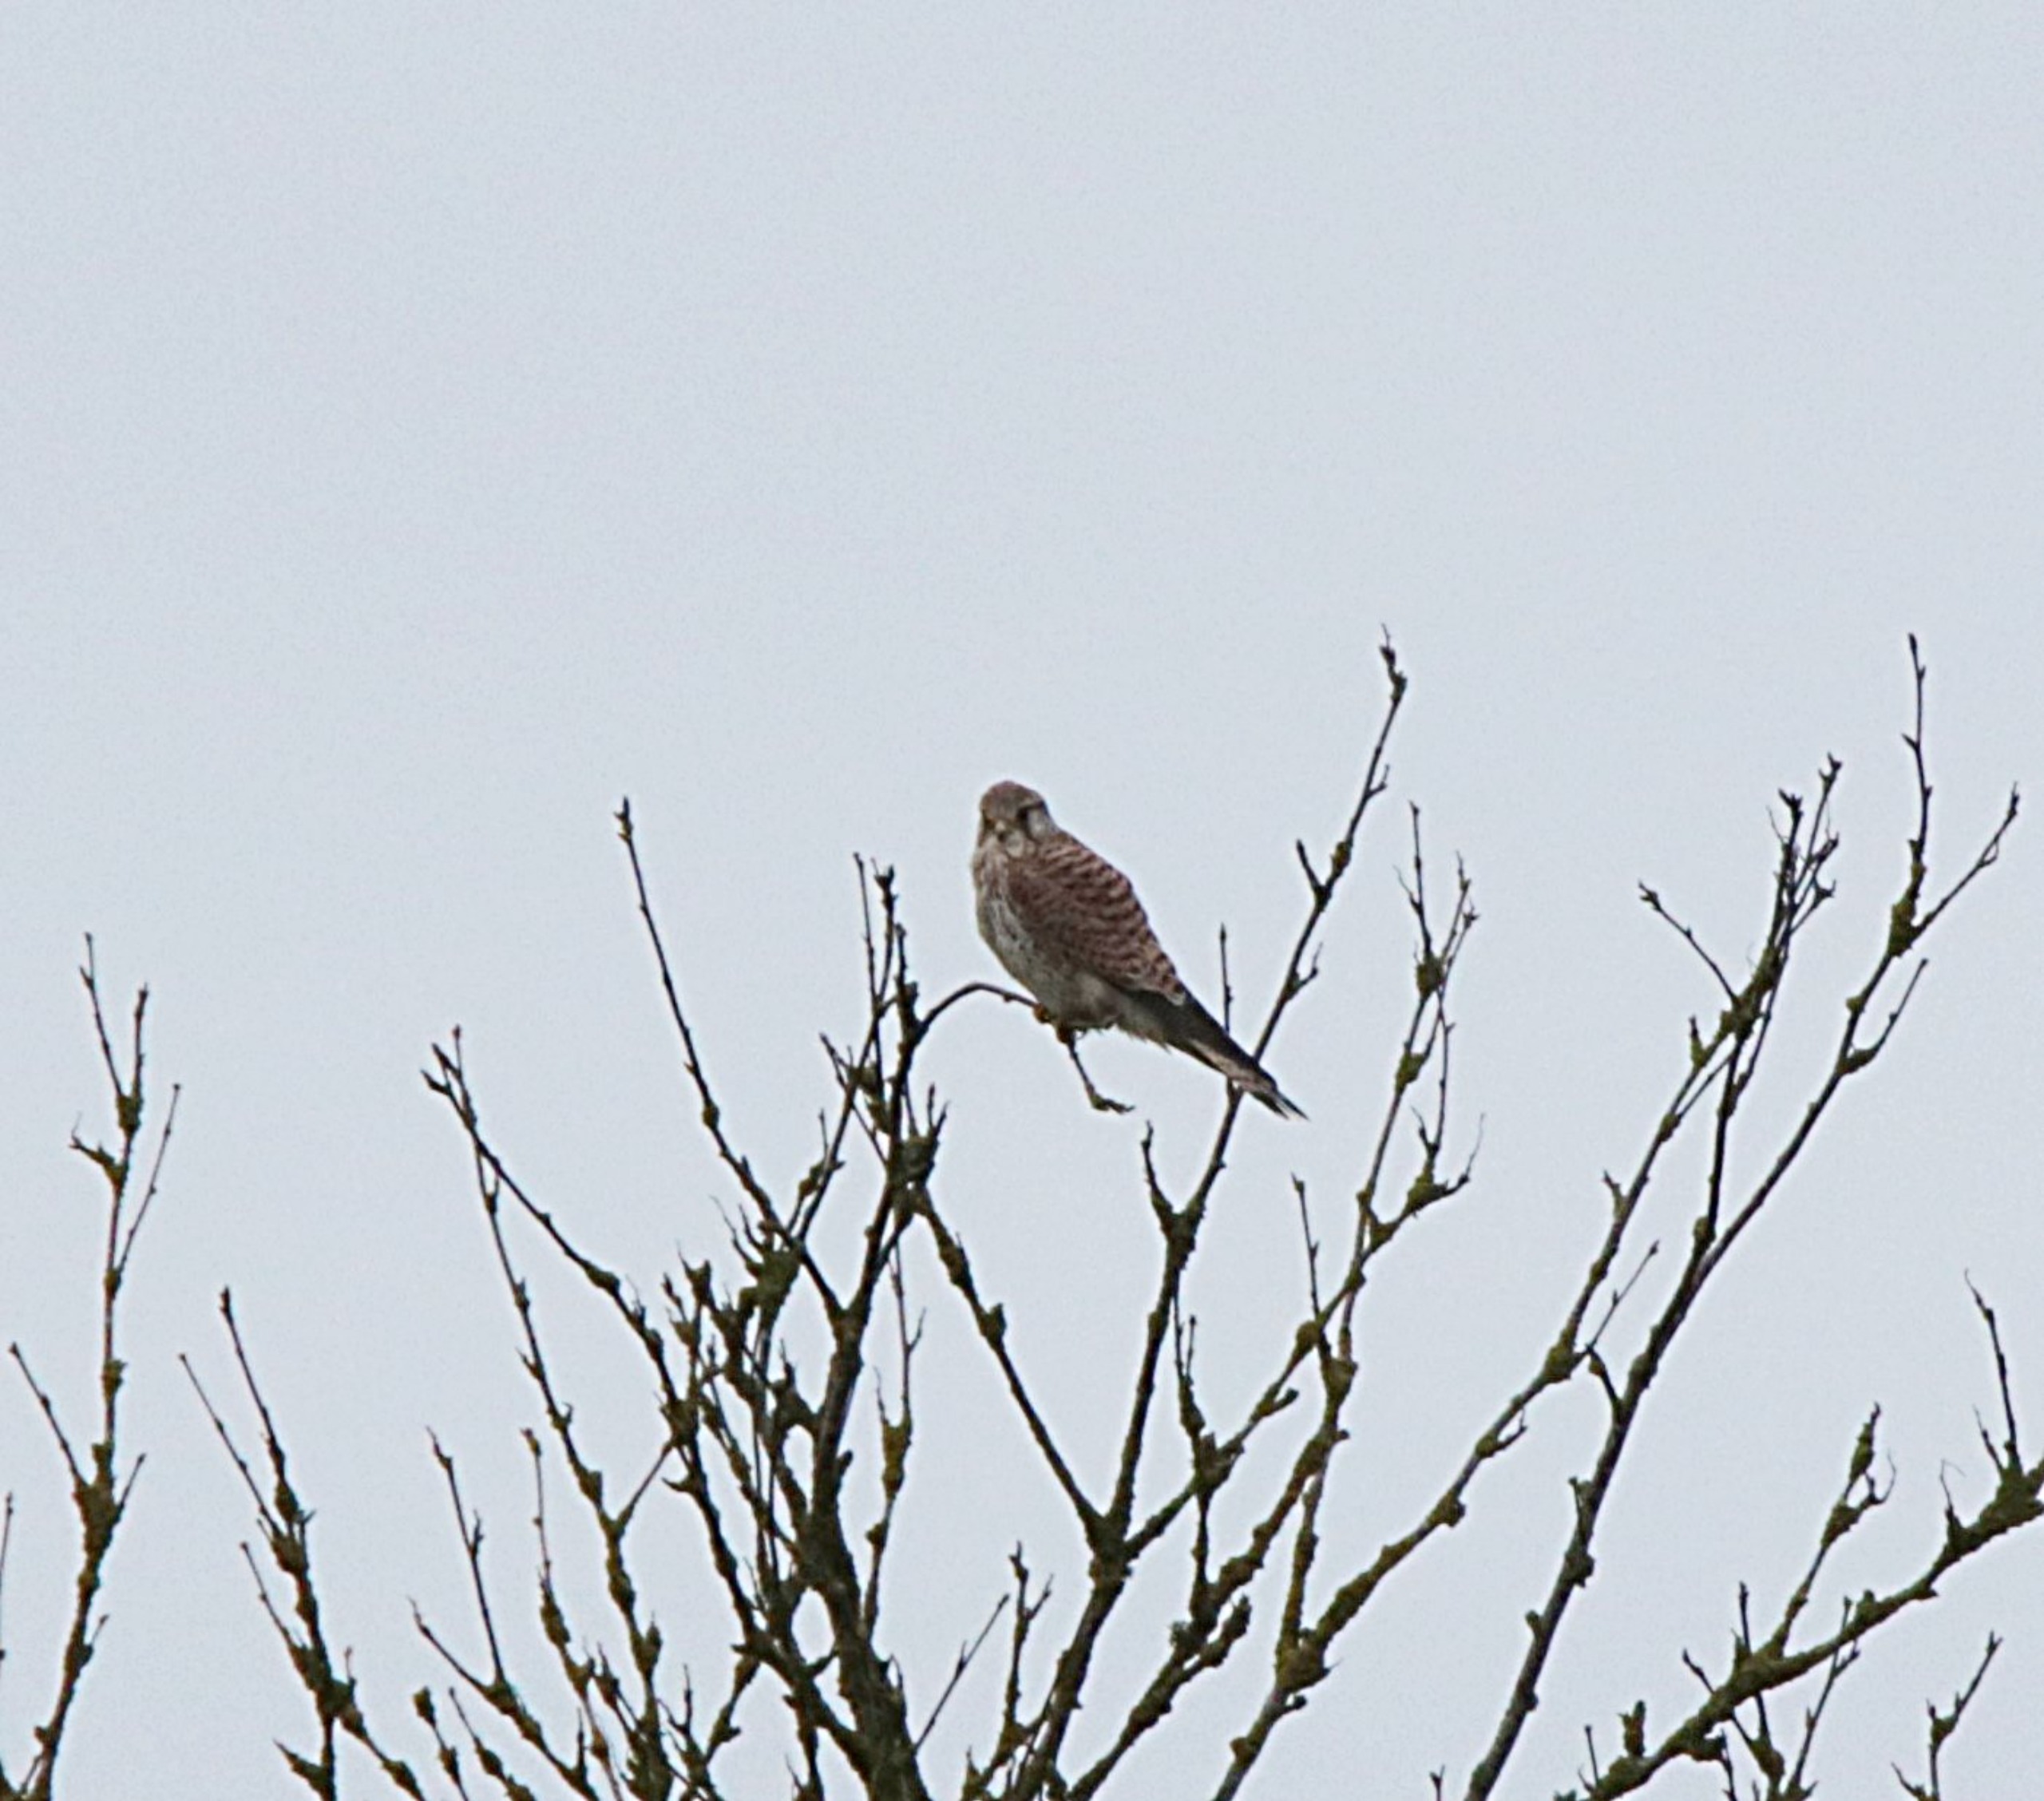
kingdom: Animalia
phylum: Chordata
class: Aves
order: Falconiformes
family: Falconidae
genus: Falco
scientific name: Falco tinnunculus
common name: Tårnfalk
